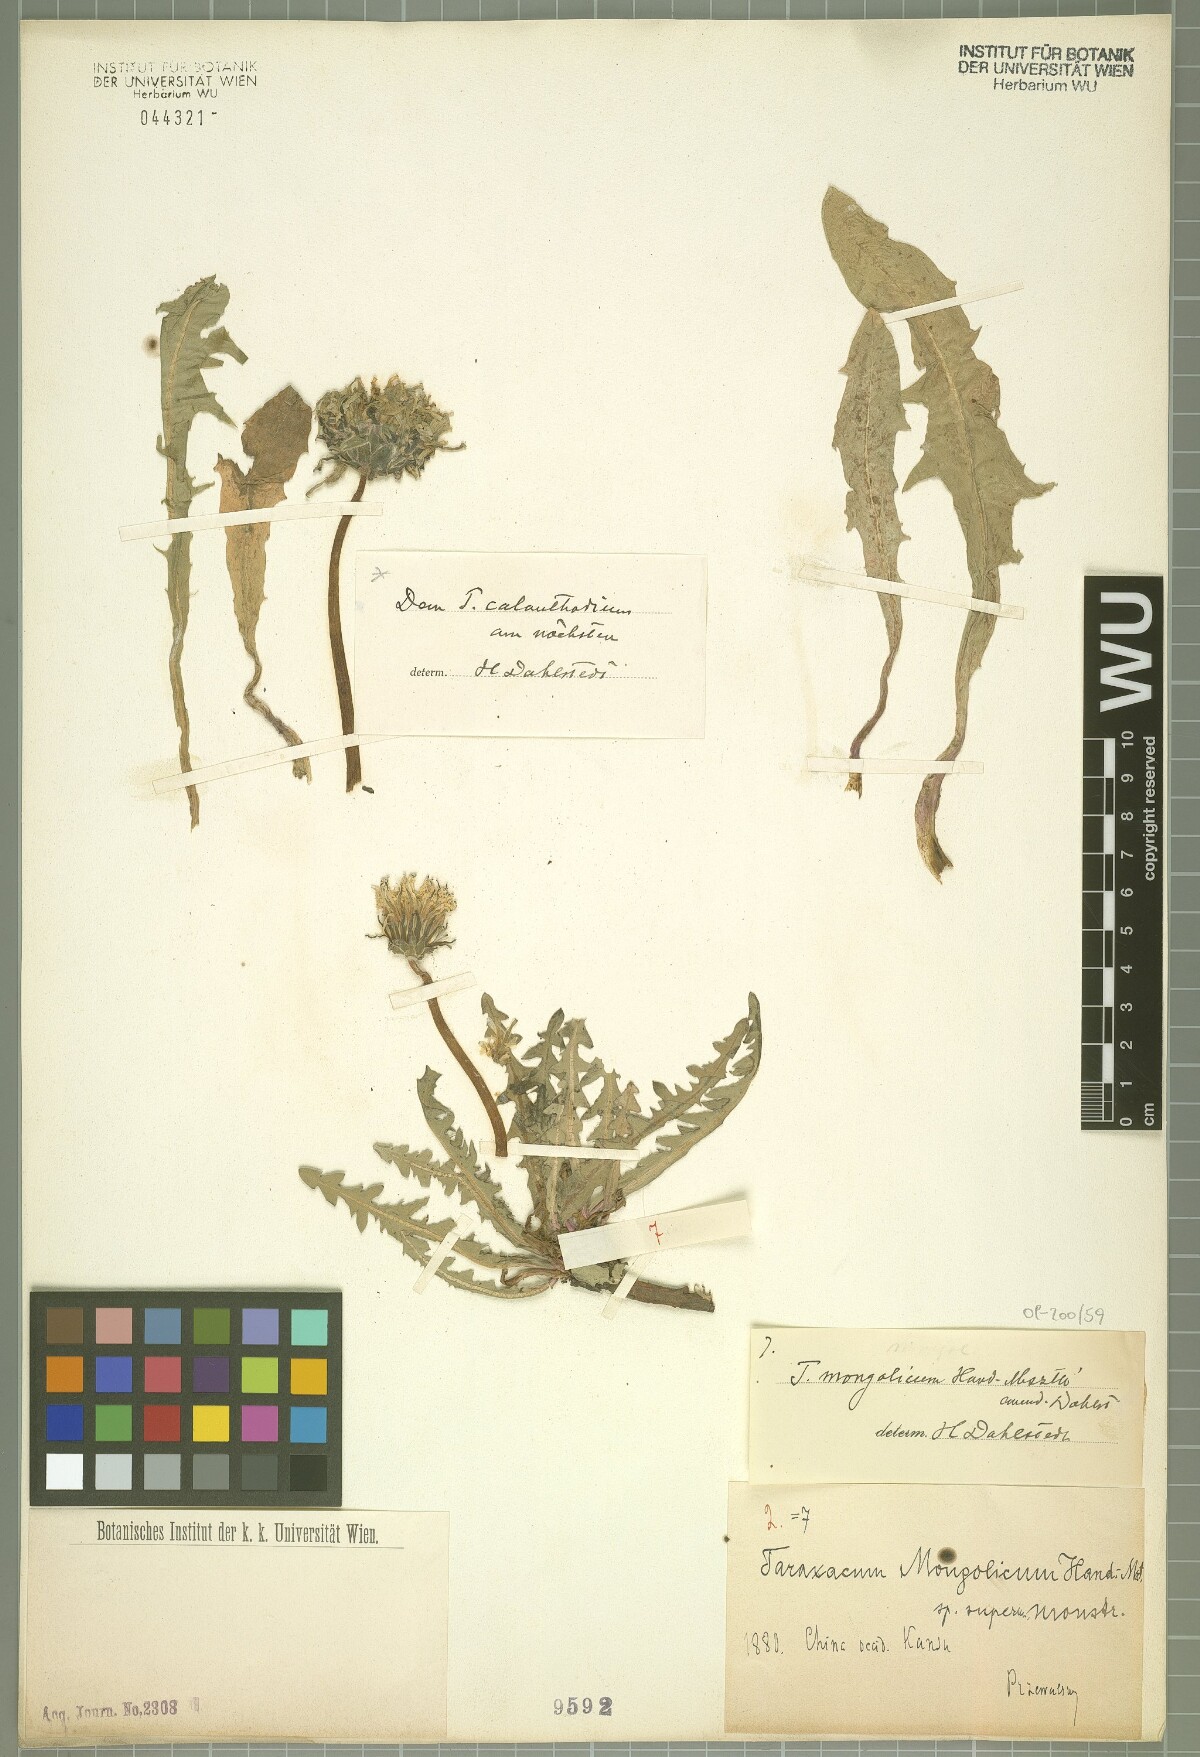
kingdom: Plantae
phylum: Tracheophyta
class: Magnoliopsida
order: Asterales
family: Asteraceae
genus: Taraxacum
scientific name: Taraxacum mongolicum
